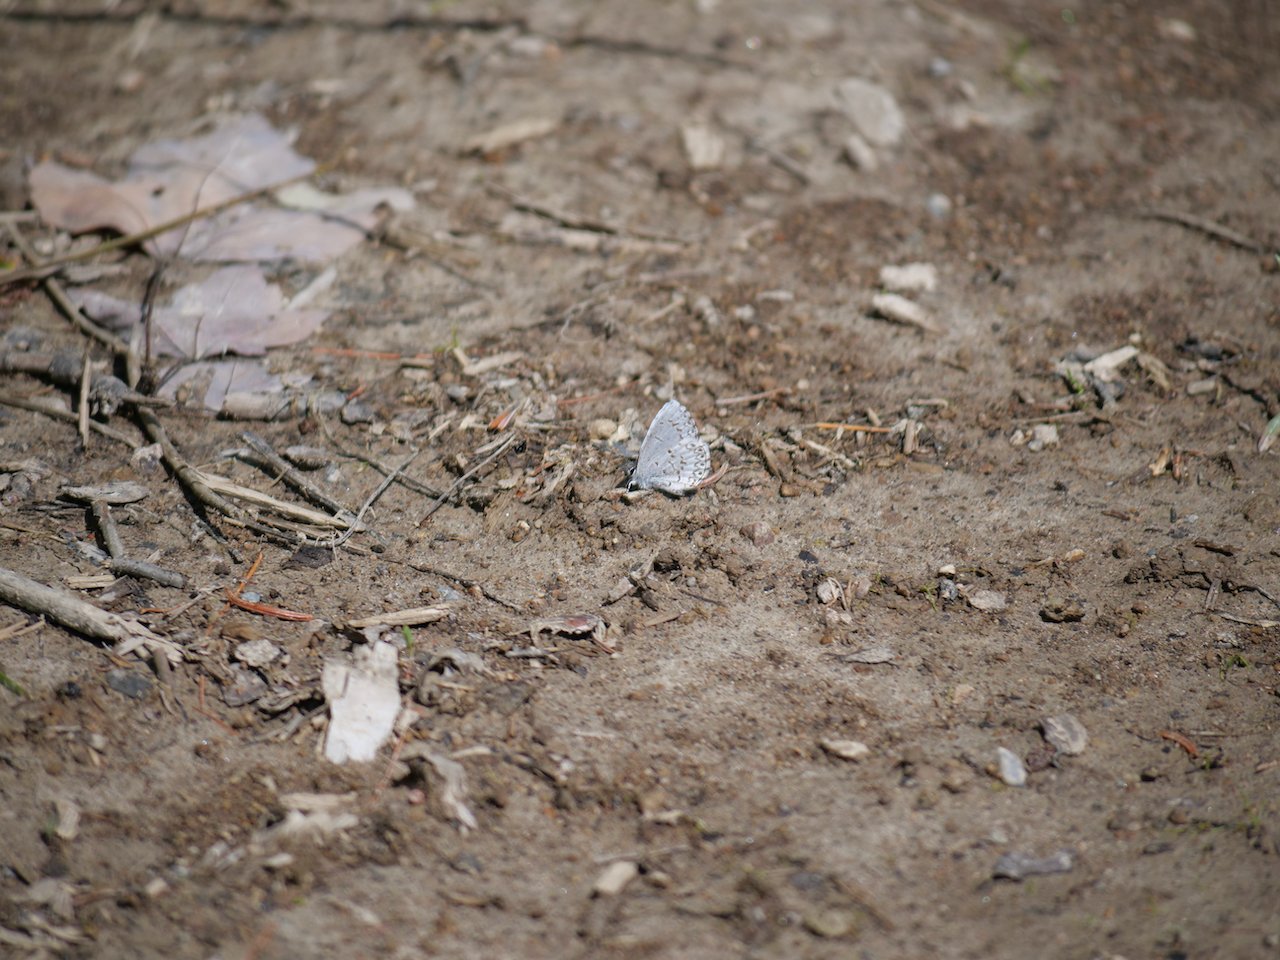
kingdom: Animalia
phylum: Arthropoda
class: Insecta
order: Lepidoptera
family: Lycaenidae
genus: Celastrina
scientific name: Celastrina lucia
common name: Northern Spring Azure
